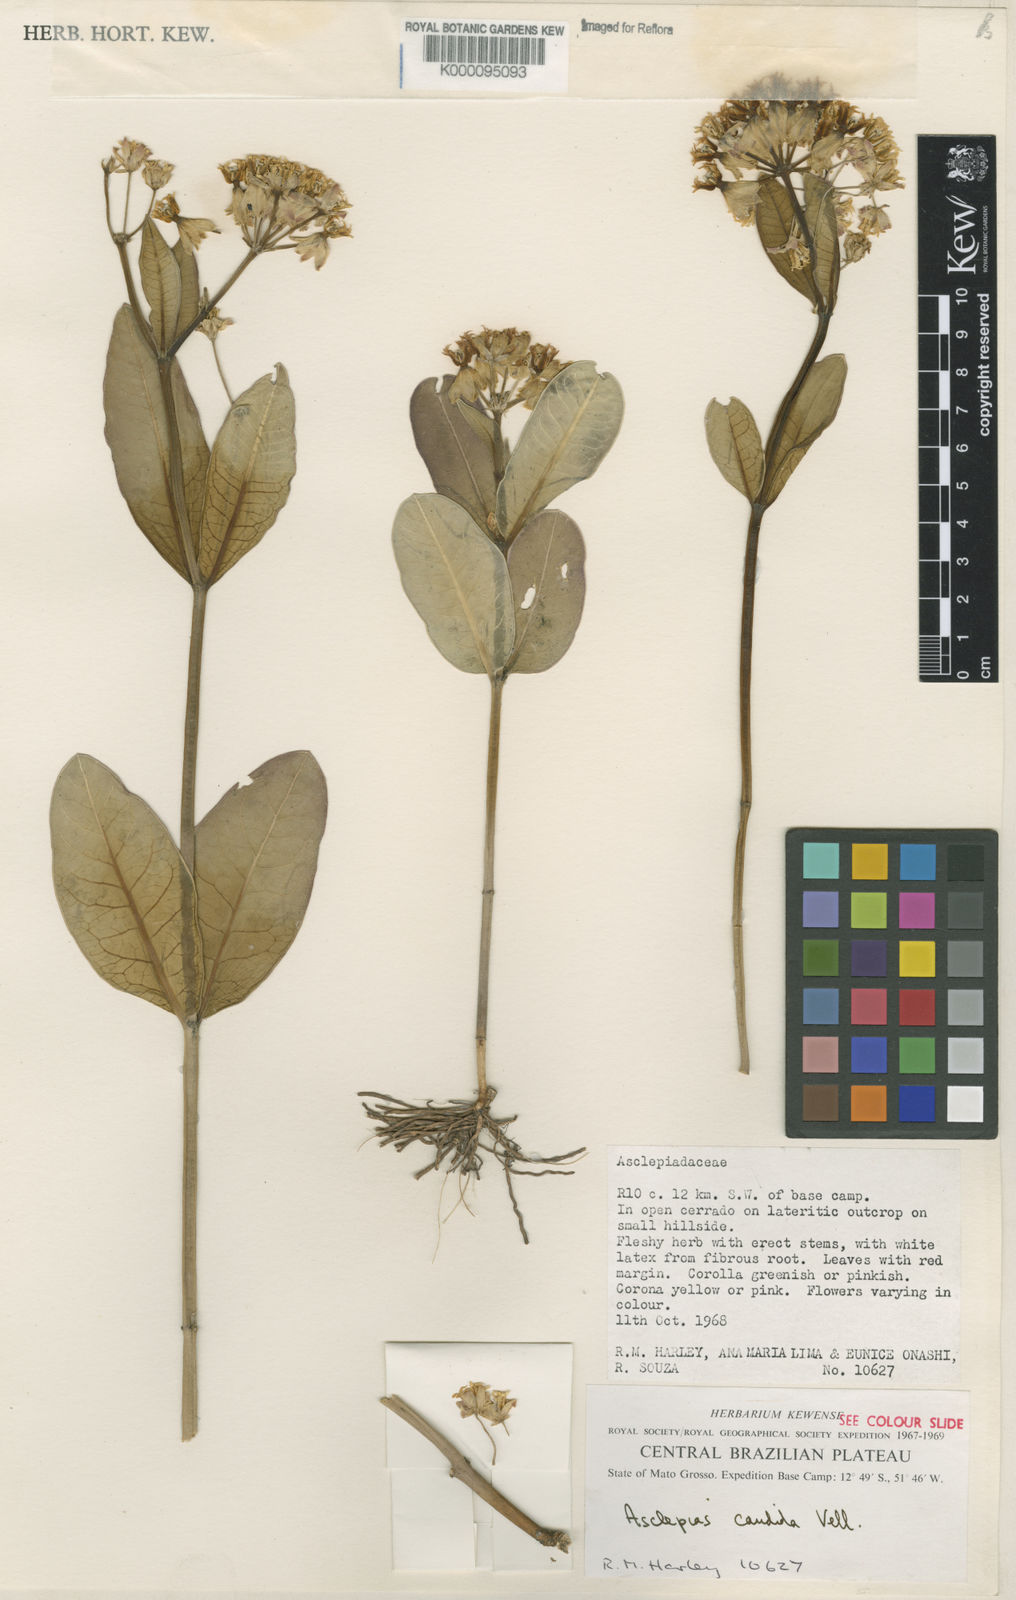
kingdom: Plantae
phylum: Tracheophyta
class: Magnoliopsida
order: Gentianales
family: Apocynaceae
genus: Asclepias
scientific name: Asclepias candida
